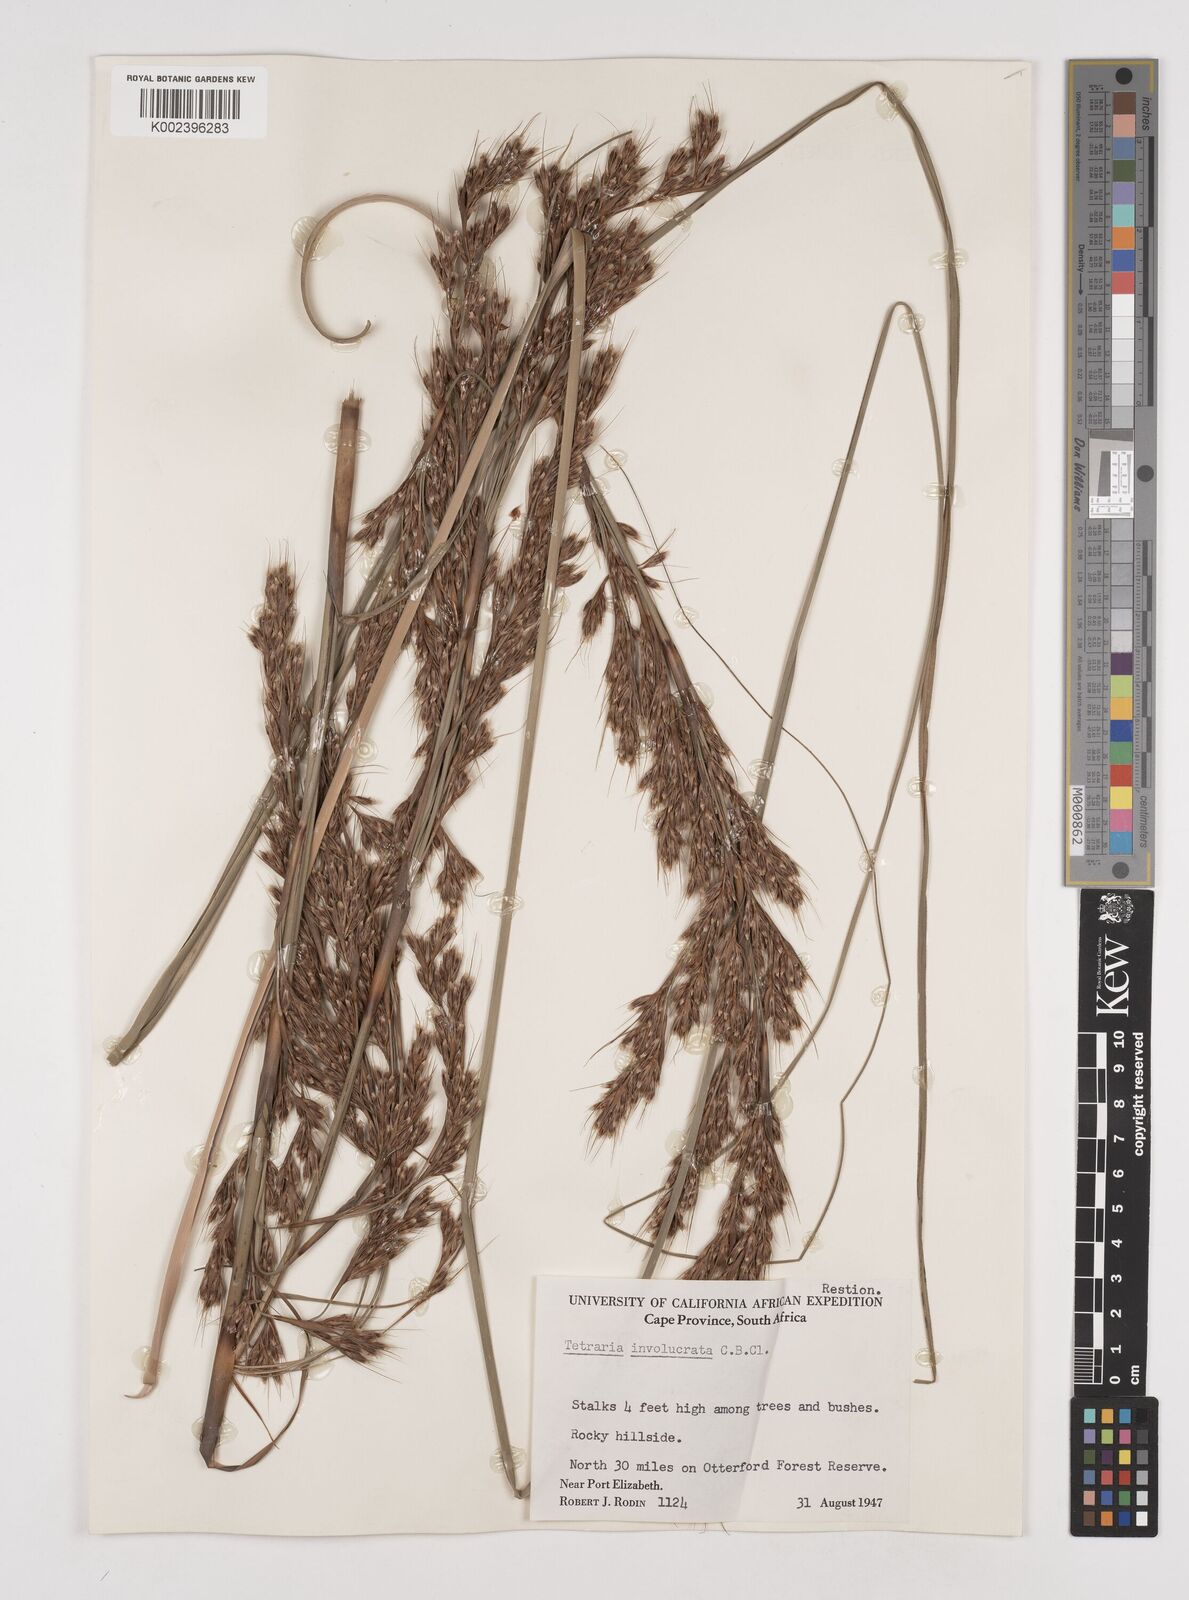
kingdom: Plantae
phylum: Tracheophyta
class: Liliopsida
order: Poales
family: Cyperaceae
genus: Tetraria
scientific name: Tetraria involucrata
